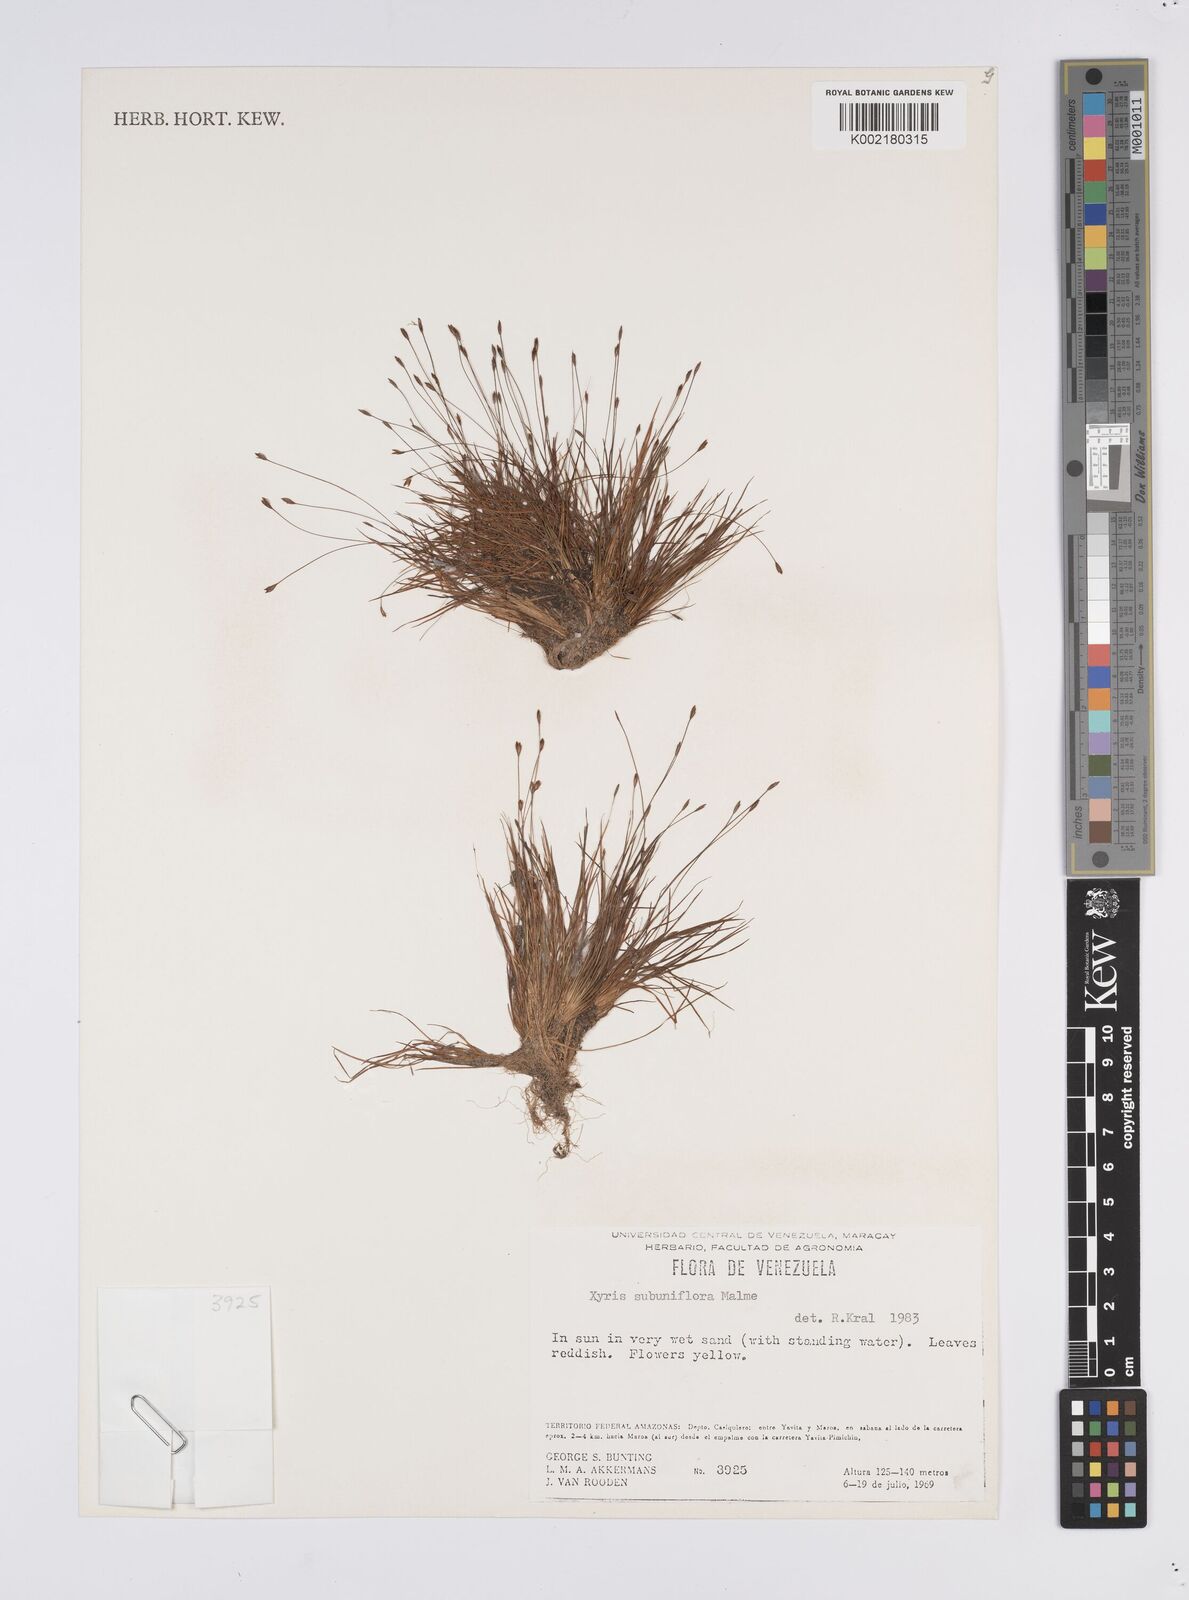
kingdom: Plantae
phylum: Tracheophyta
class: Liliopsida
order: Poales
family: Xyridaceae
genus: Xyris
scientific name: Xyris subuniflora
